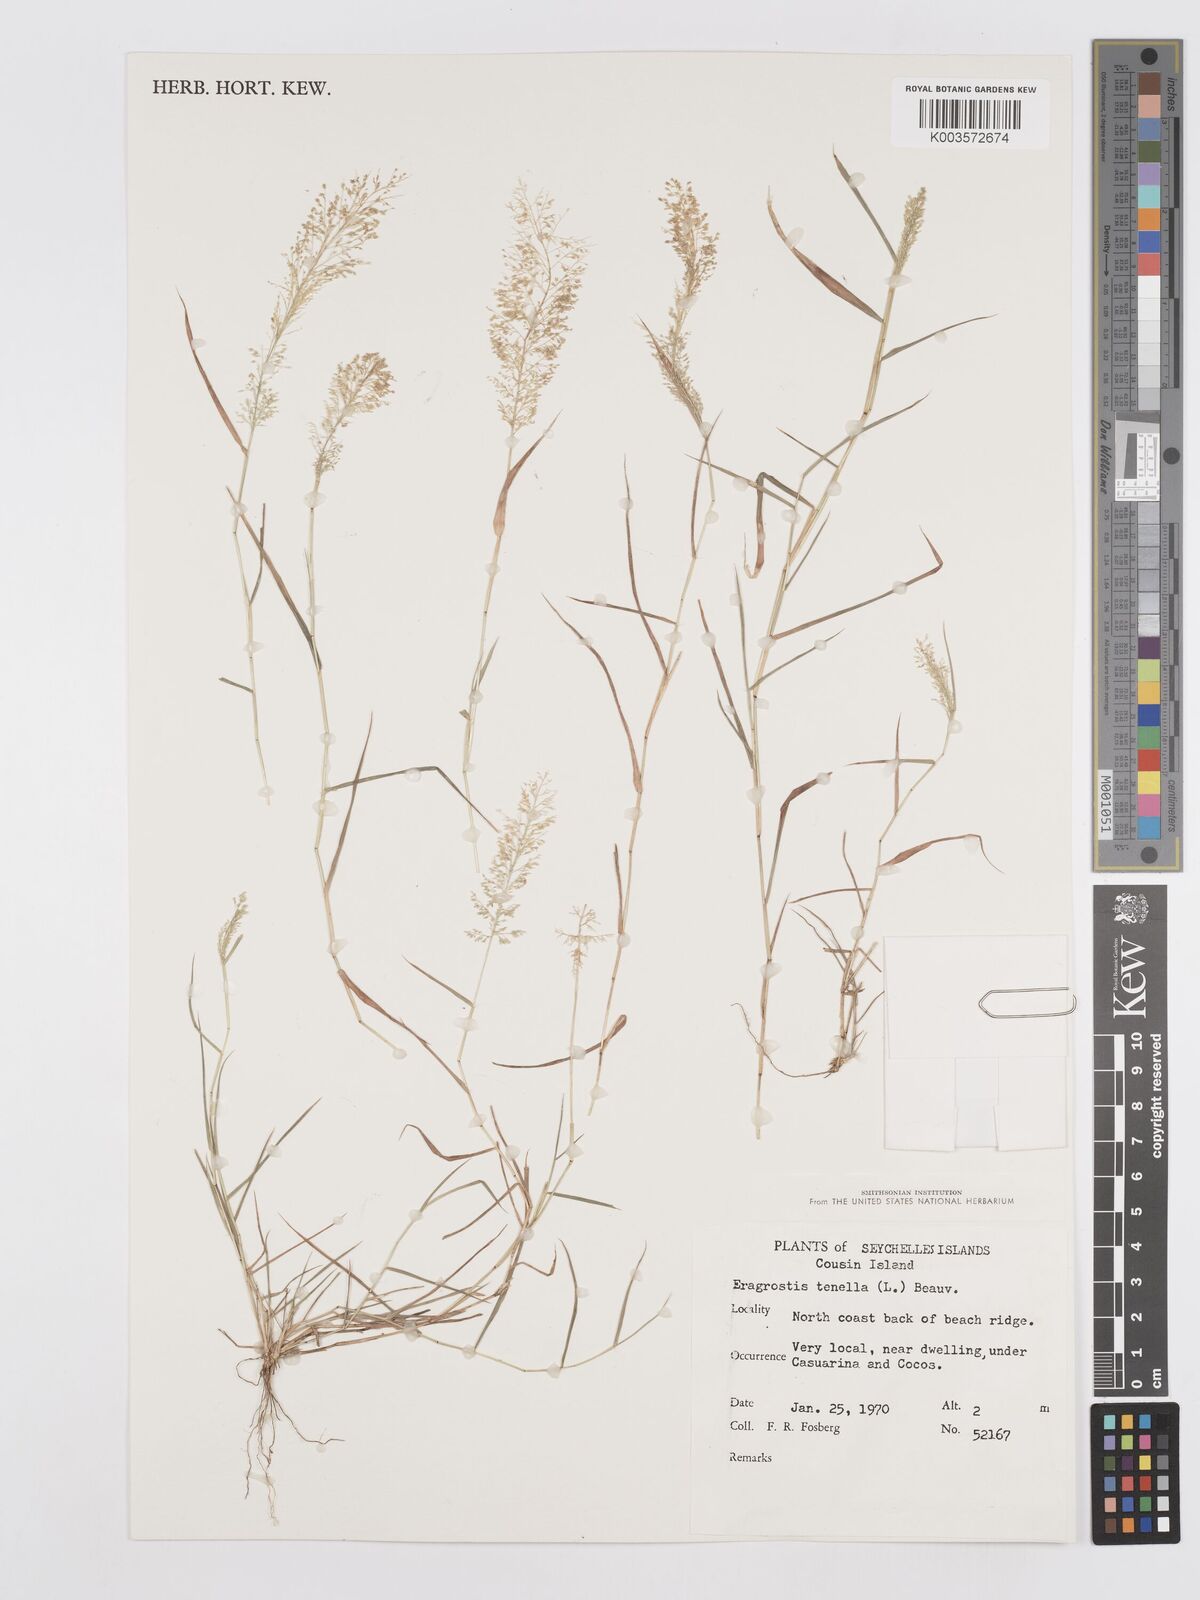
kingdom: Plantae
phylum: Tracheophyta
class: Liliopsida
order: Poales
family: Poaceae
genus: Eragrostis
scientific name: Eragrostis tenella
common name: Japanese lovegrass
